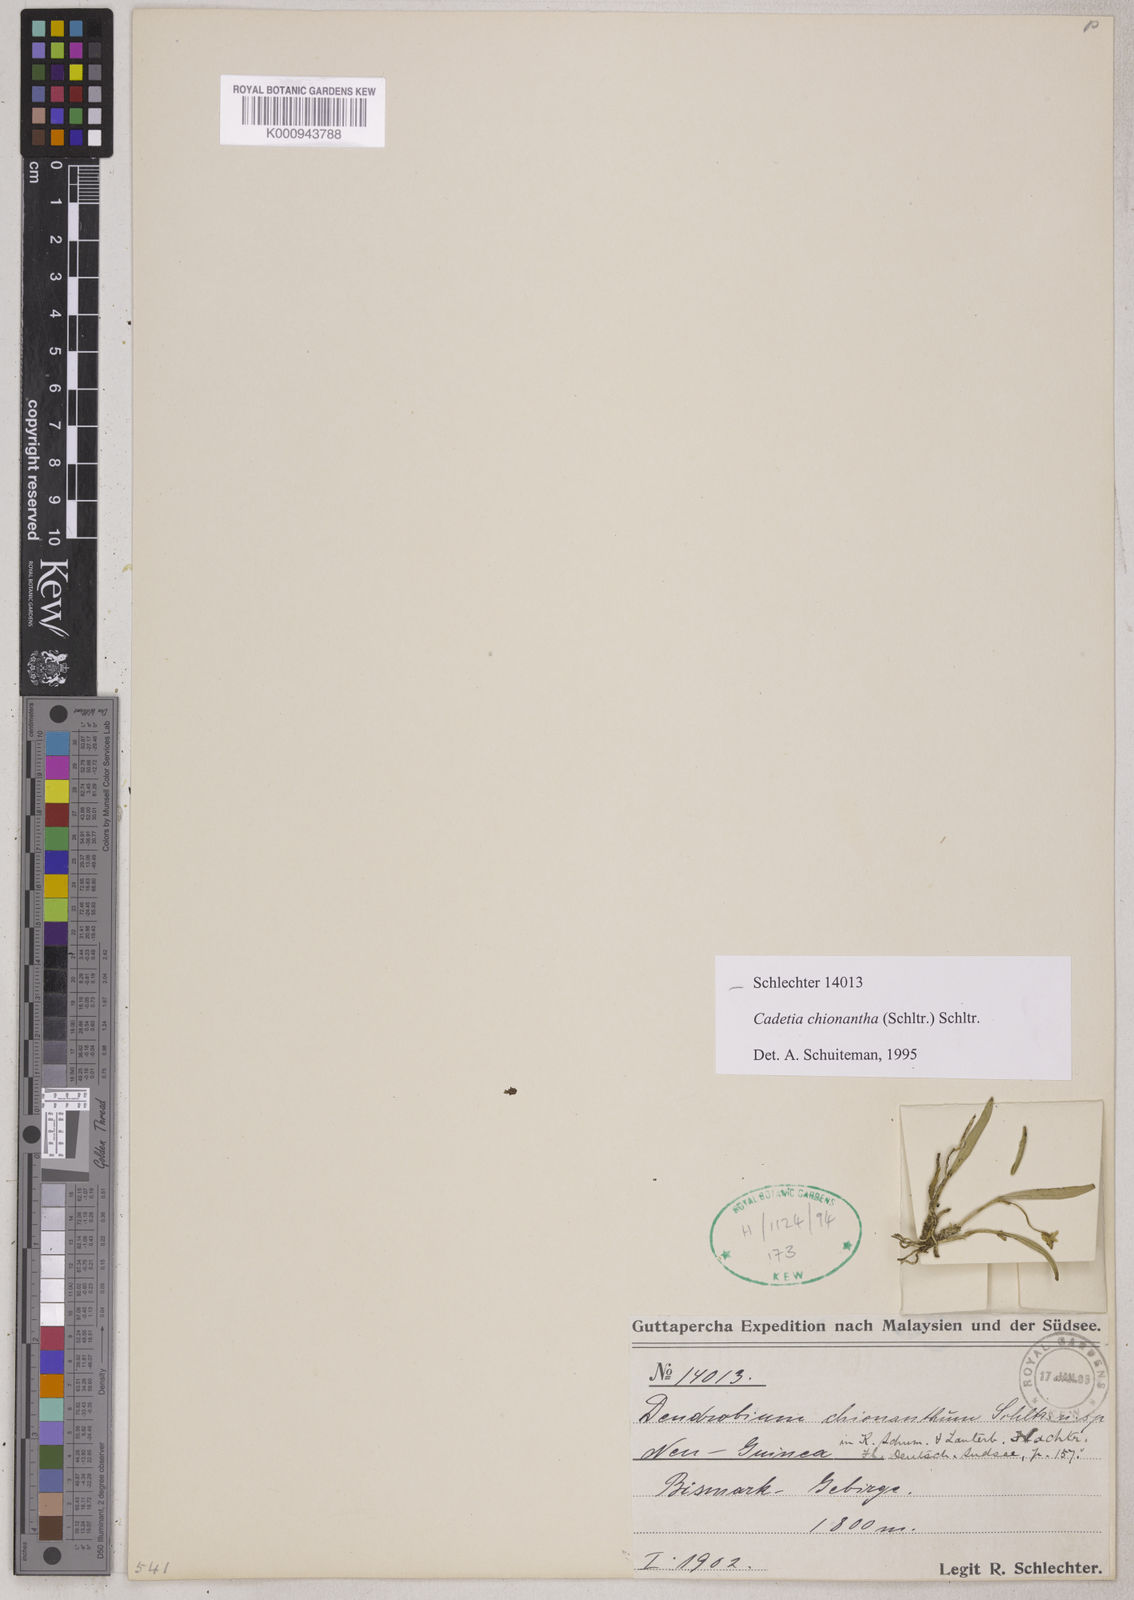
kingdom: Plantae
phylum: Tracheophyta
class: Liliopsida
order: Asparagales
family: Orchidaceae
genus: Dendrobium
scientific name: Dendrobium chionanthum
